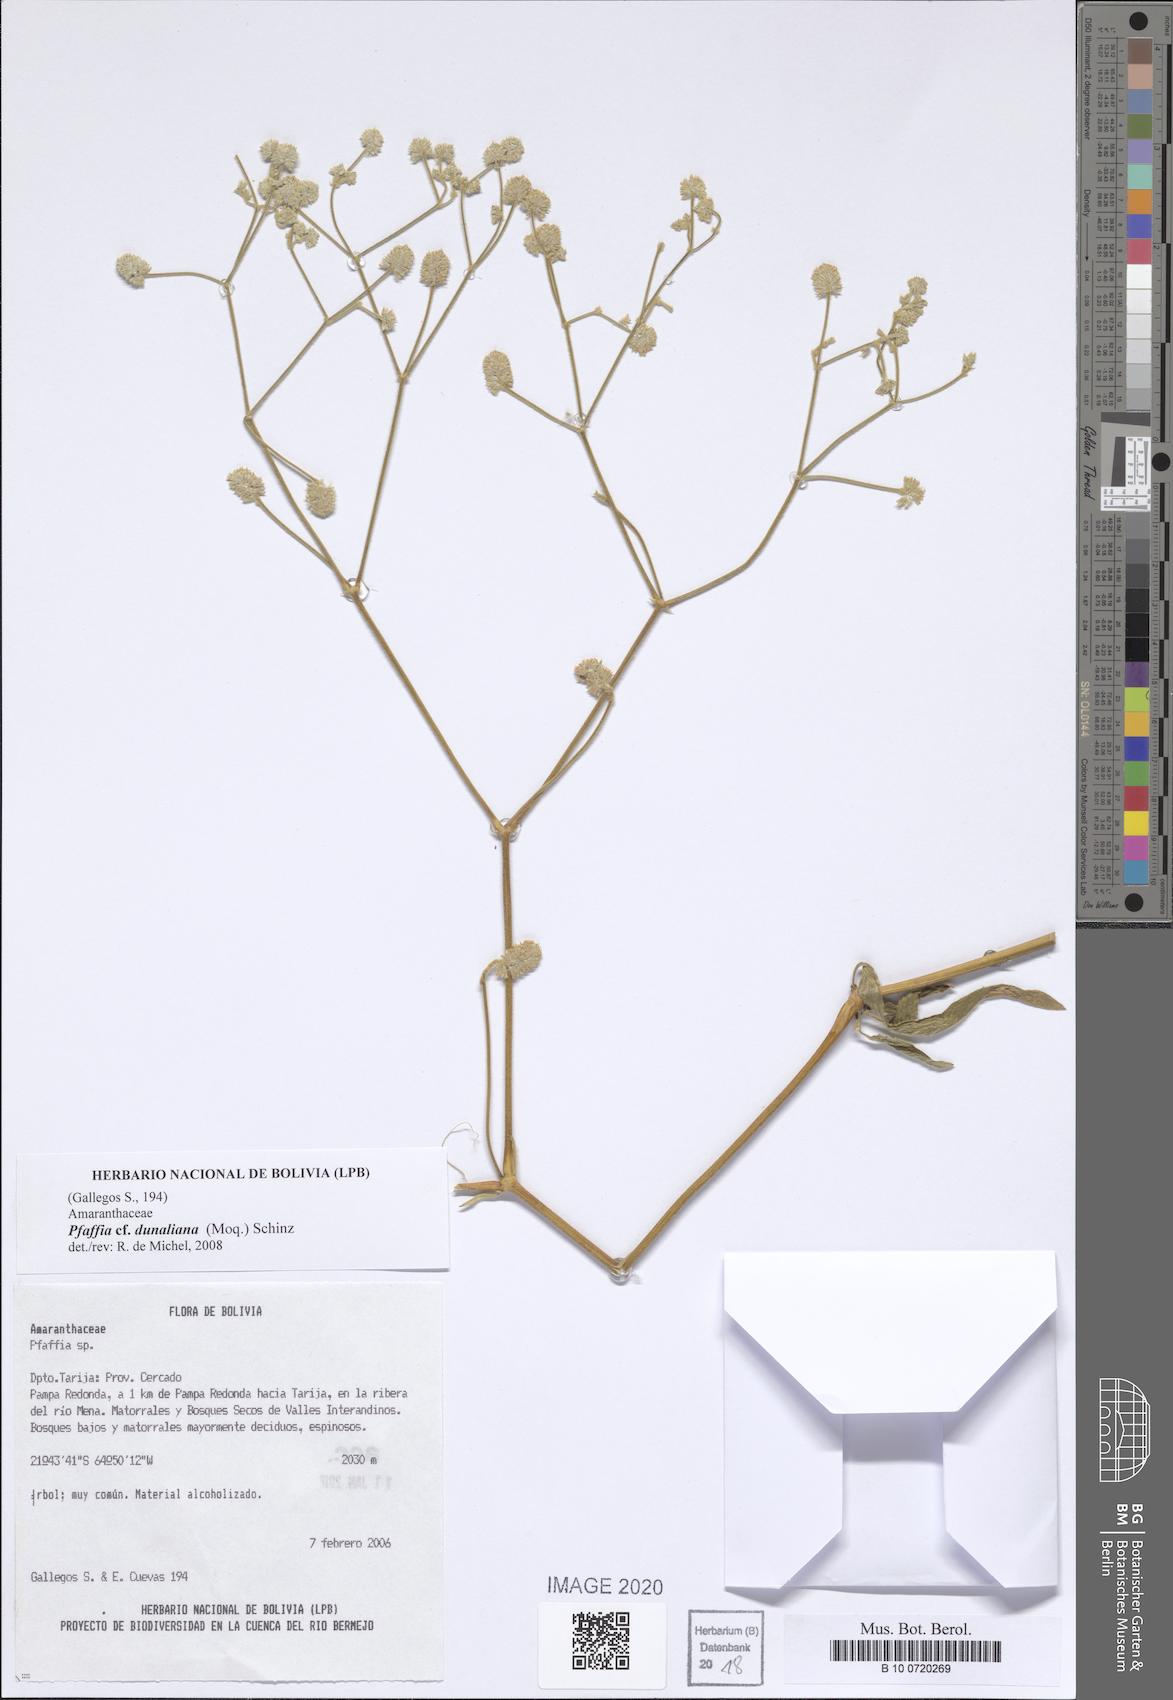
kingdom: Plantae
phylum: Tracheophyta
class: Magnoliopsida
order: Caryophyllales
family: Amaranthaceae
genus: Pfaffia
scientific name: Pfaffia glomerata
